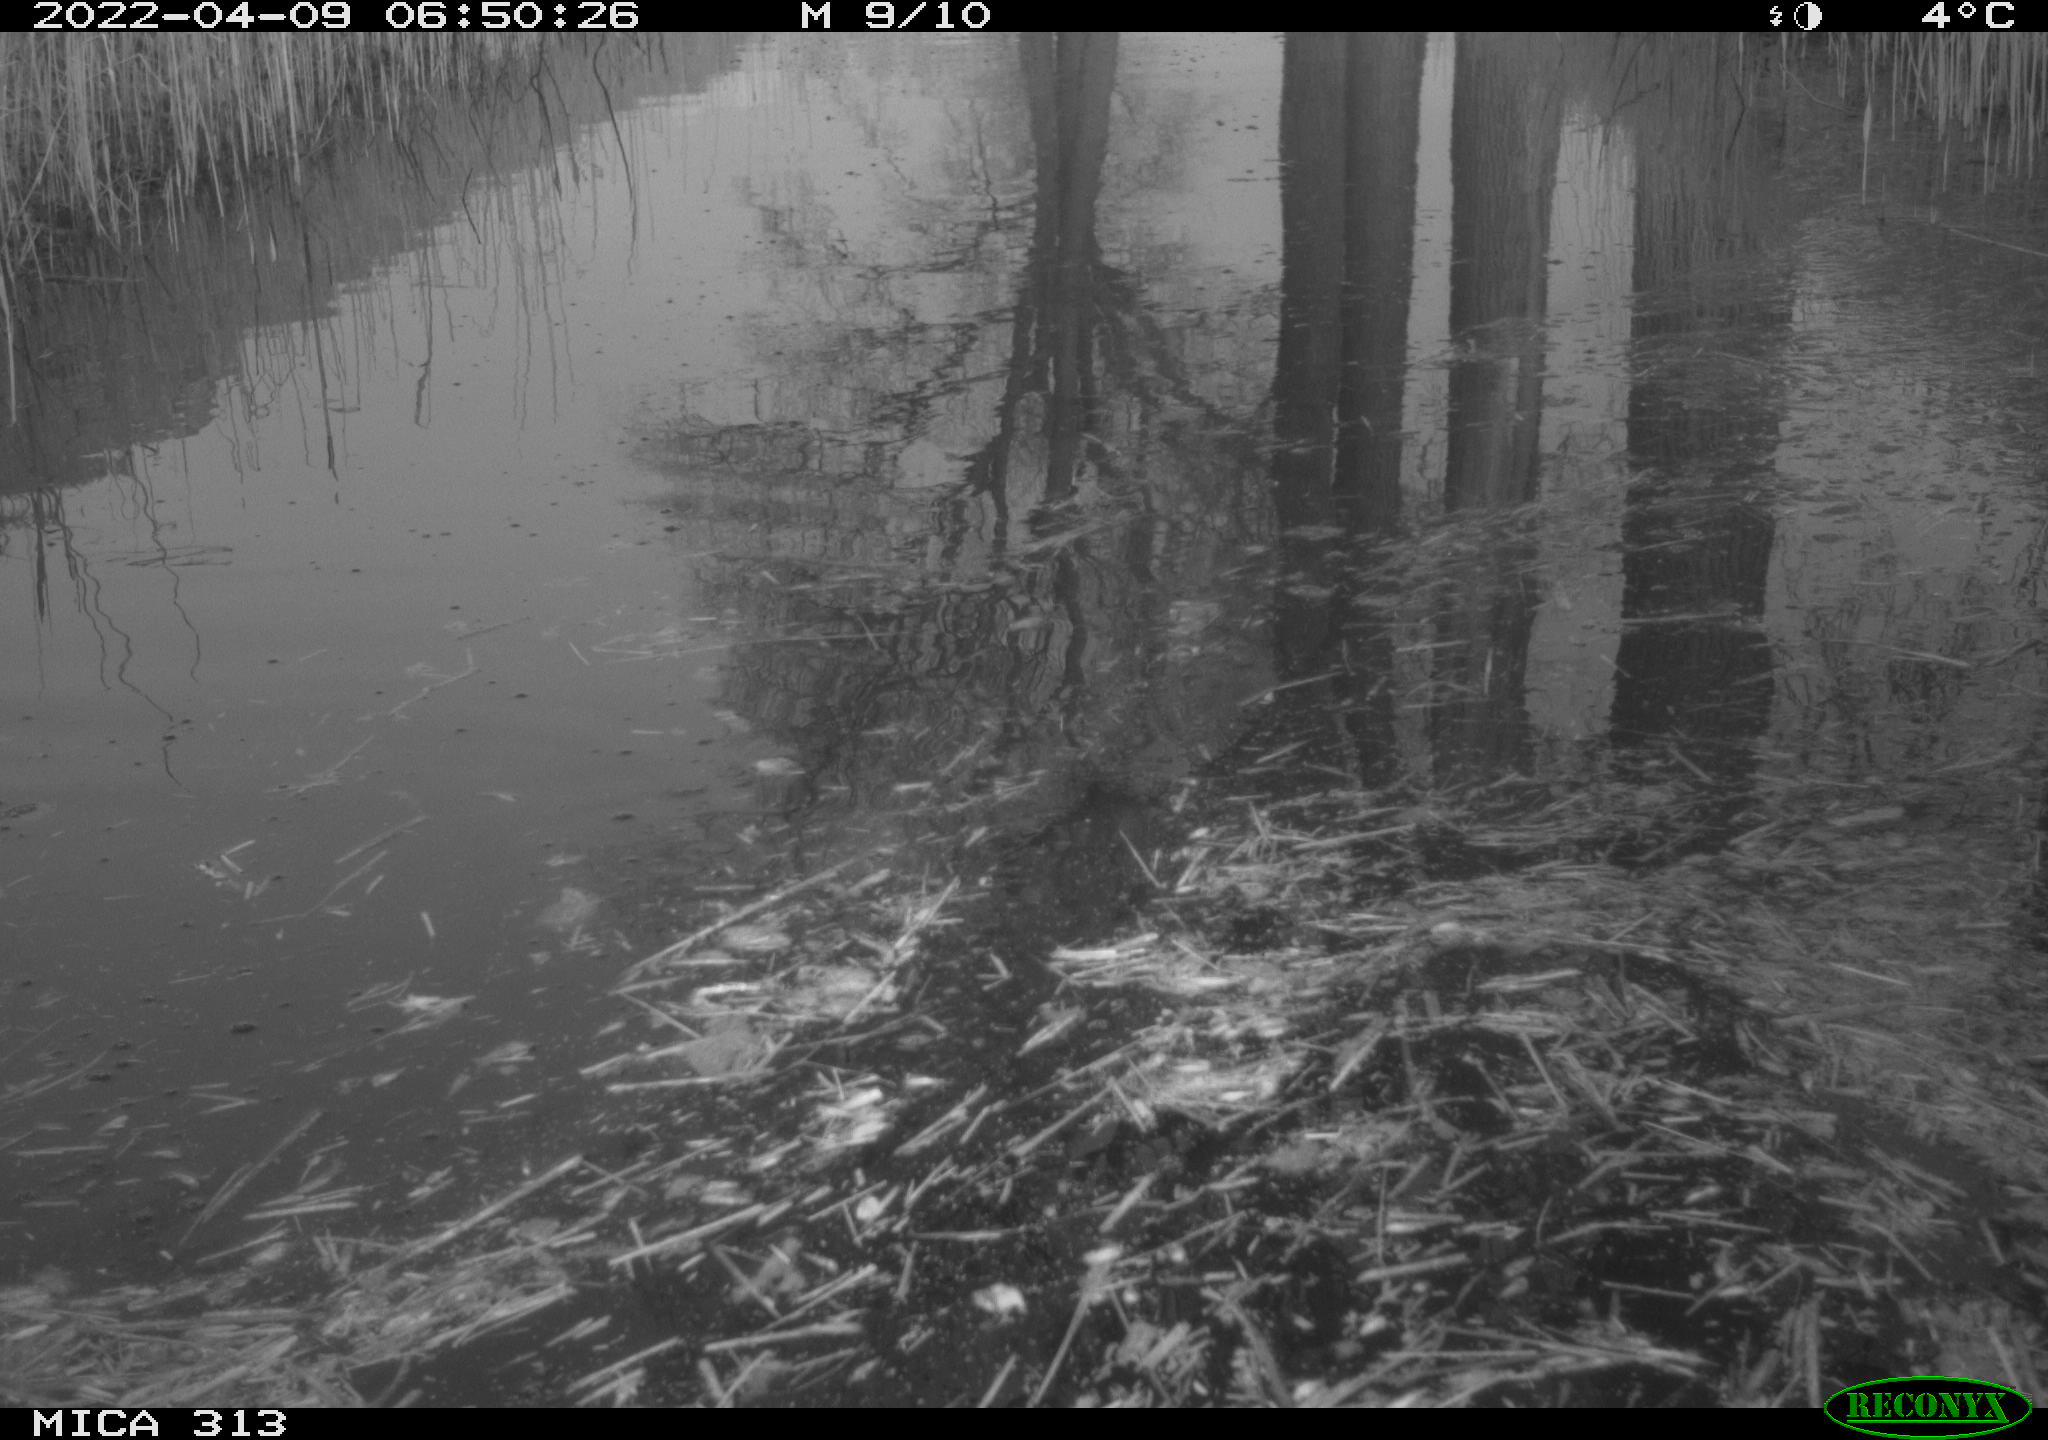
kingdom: Animalia
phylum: Chordata
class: Aves
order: Gruiformes
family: Rallidae
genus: Gallinula
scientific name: Gallinula chloropus
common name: Common moorhen
